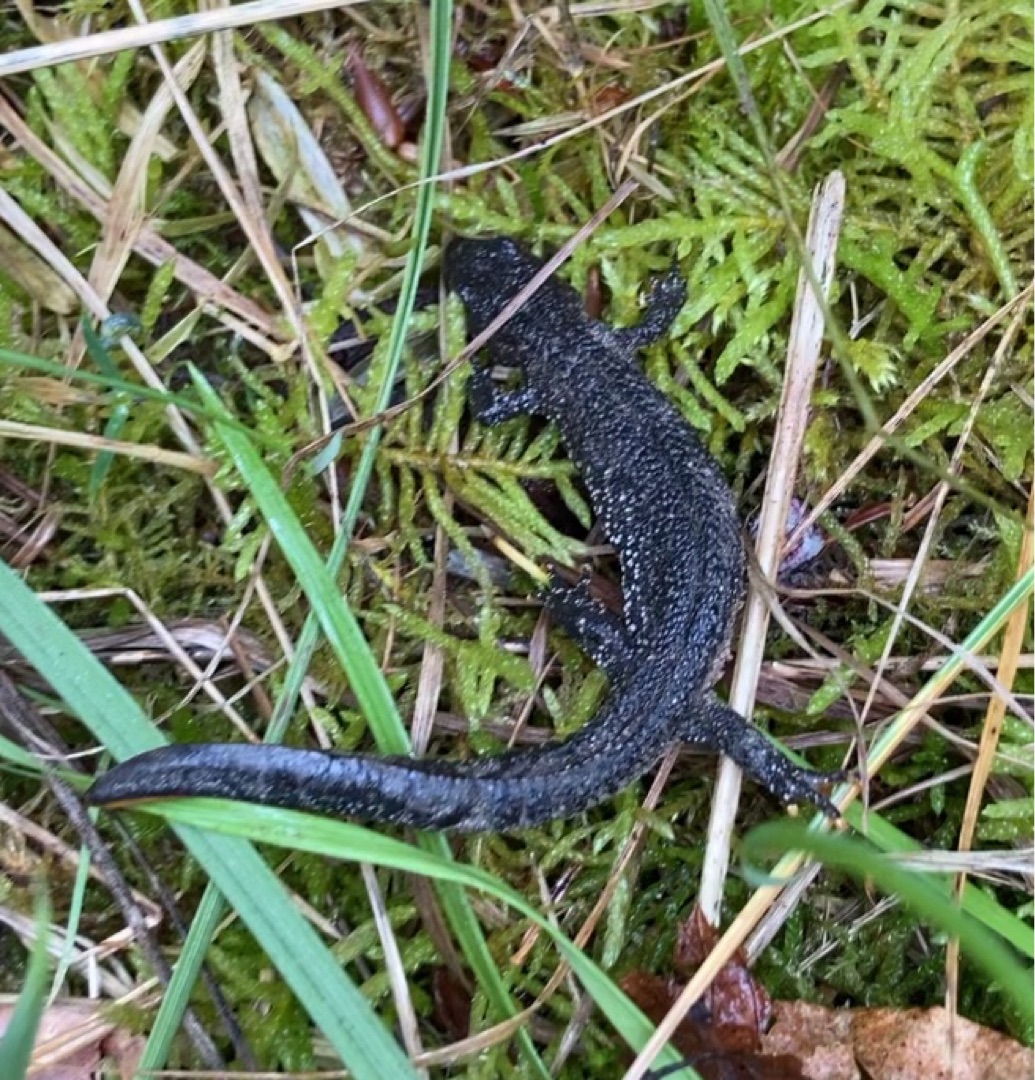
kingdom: Animalia
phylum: Chordata
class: Amphibia
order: Caudata
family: Salamandridae
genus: Triturus
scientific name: Triturus cristatus
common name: Stor vandsalamander
